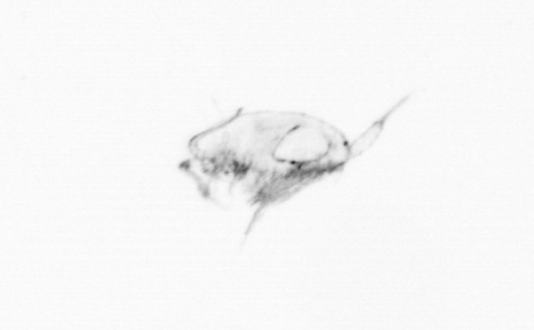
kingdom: Animalia
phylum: Arthropoda
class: Copepoda
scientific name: Copepoda
